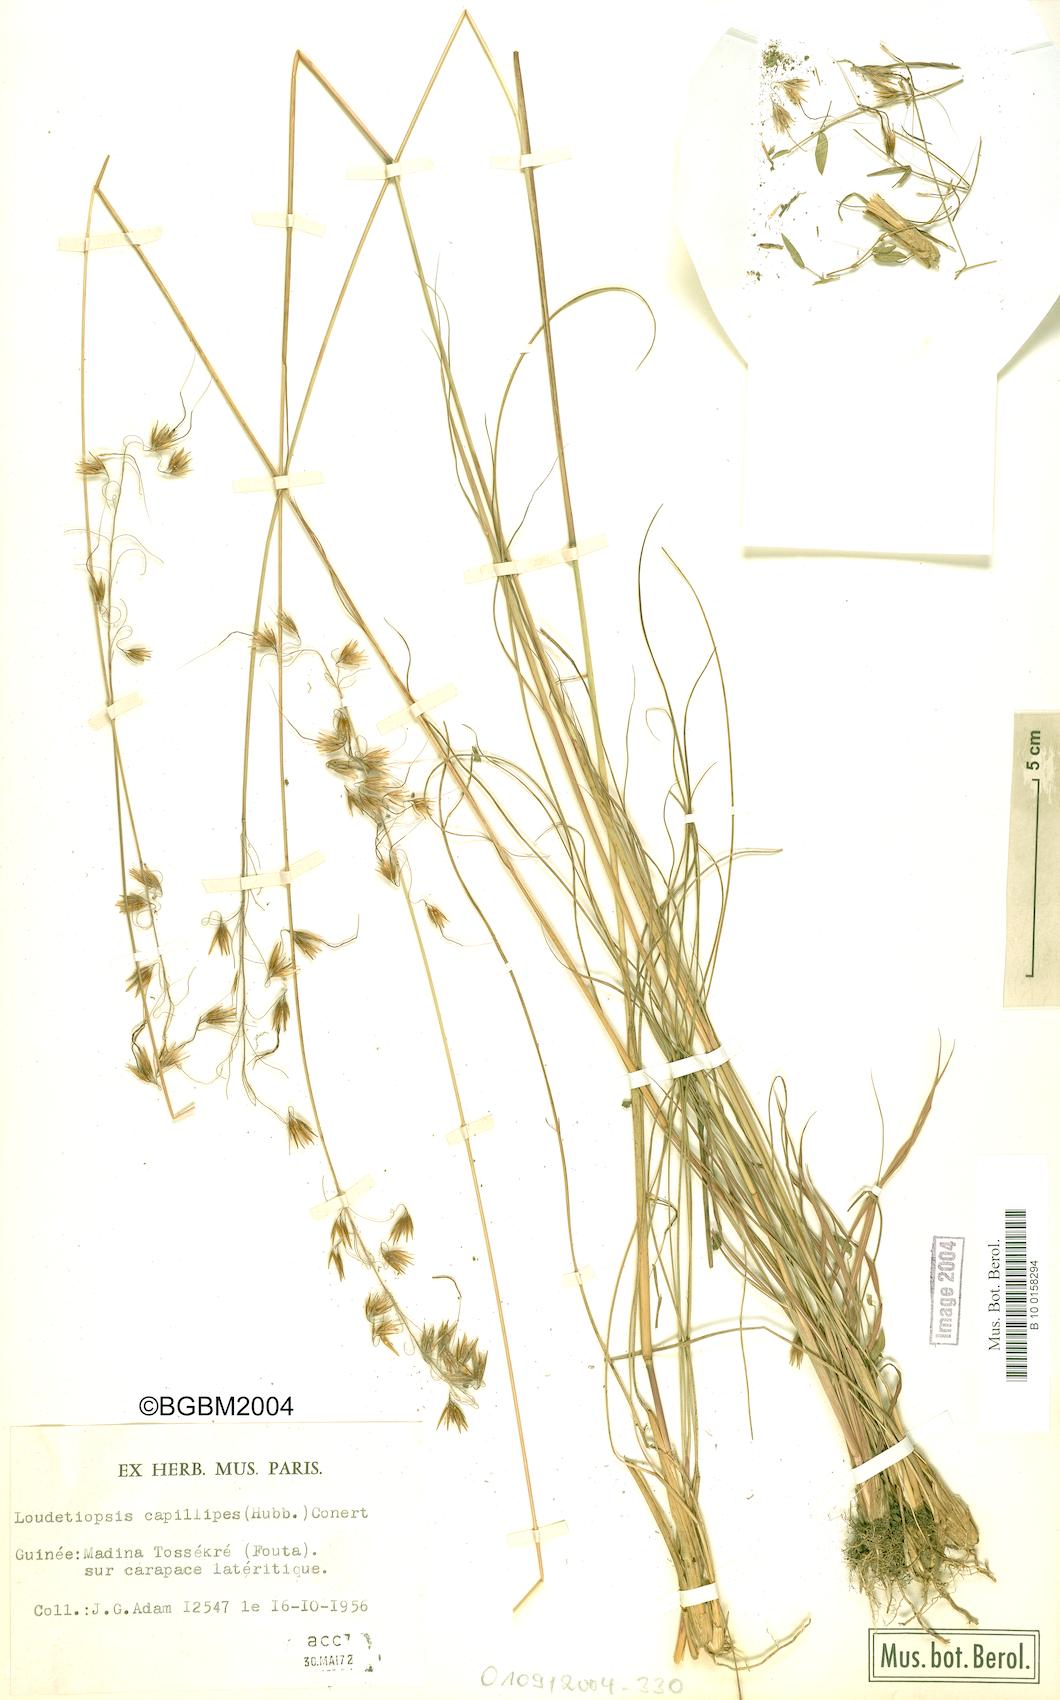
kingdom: Plantae
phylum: Tracheophyta
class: Liliopsida
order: Poales
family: Poaceae
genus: Loudetiopsis
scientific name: Loudetiopsis capillipes
